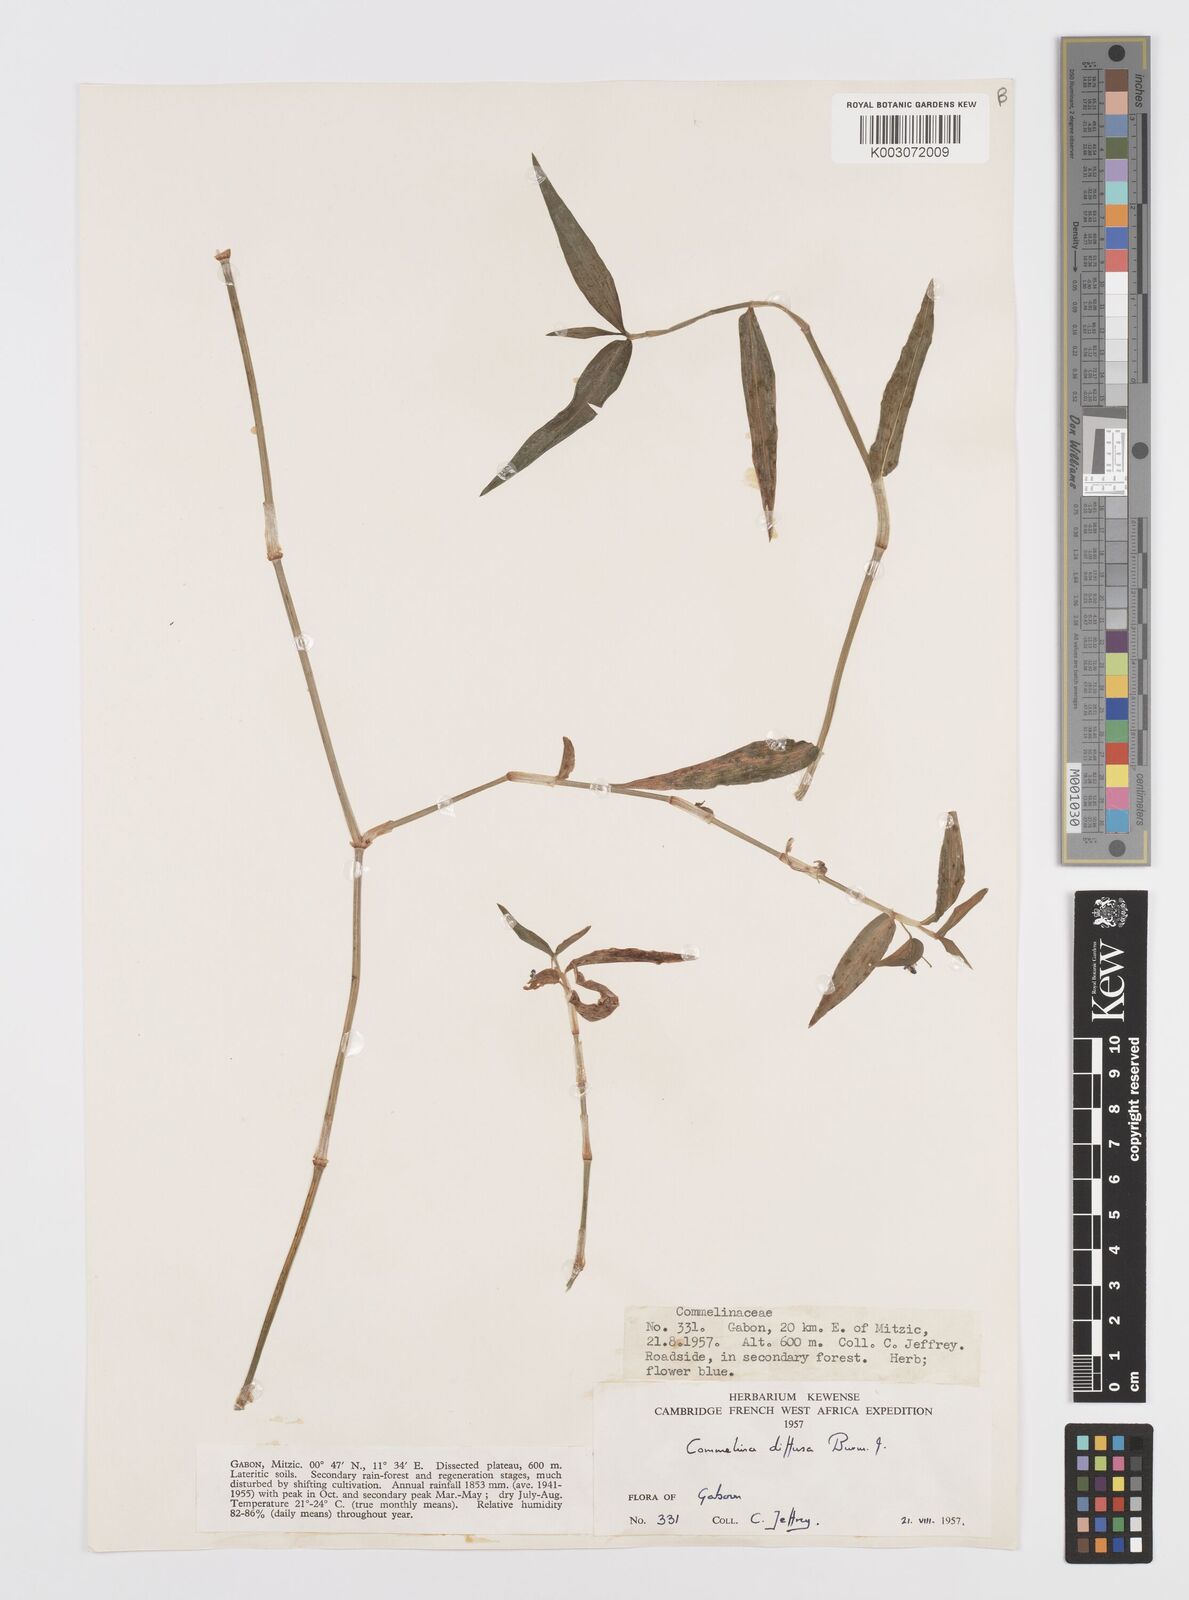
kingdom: Plantae
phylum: Tracheophyta
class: Liliopsida
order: Commelinales
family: Commelinaceae
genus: Commelina
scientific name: Commelina diffusa
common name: Climbing dayflower
